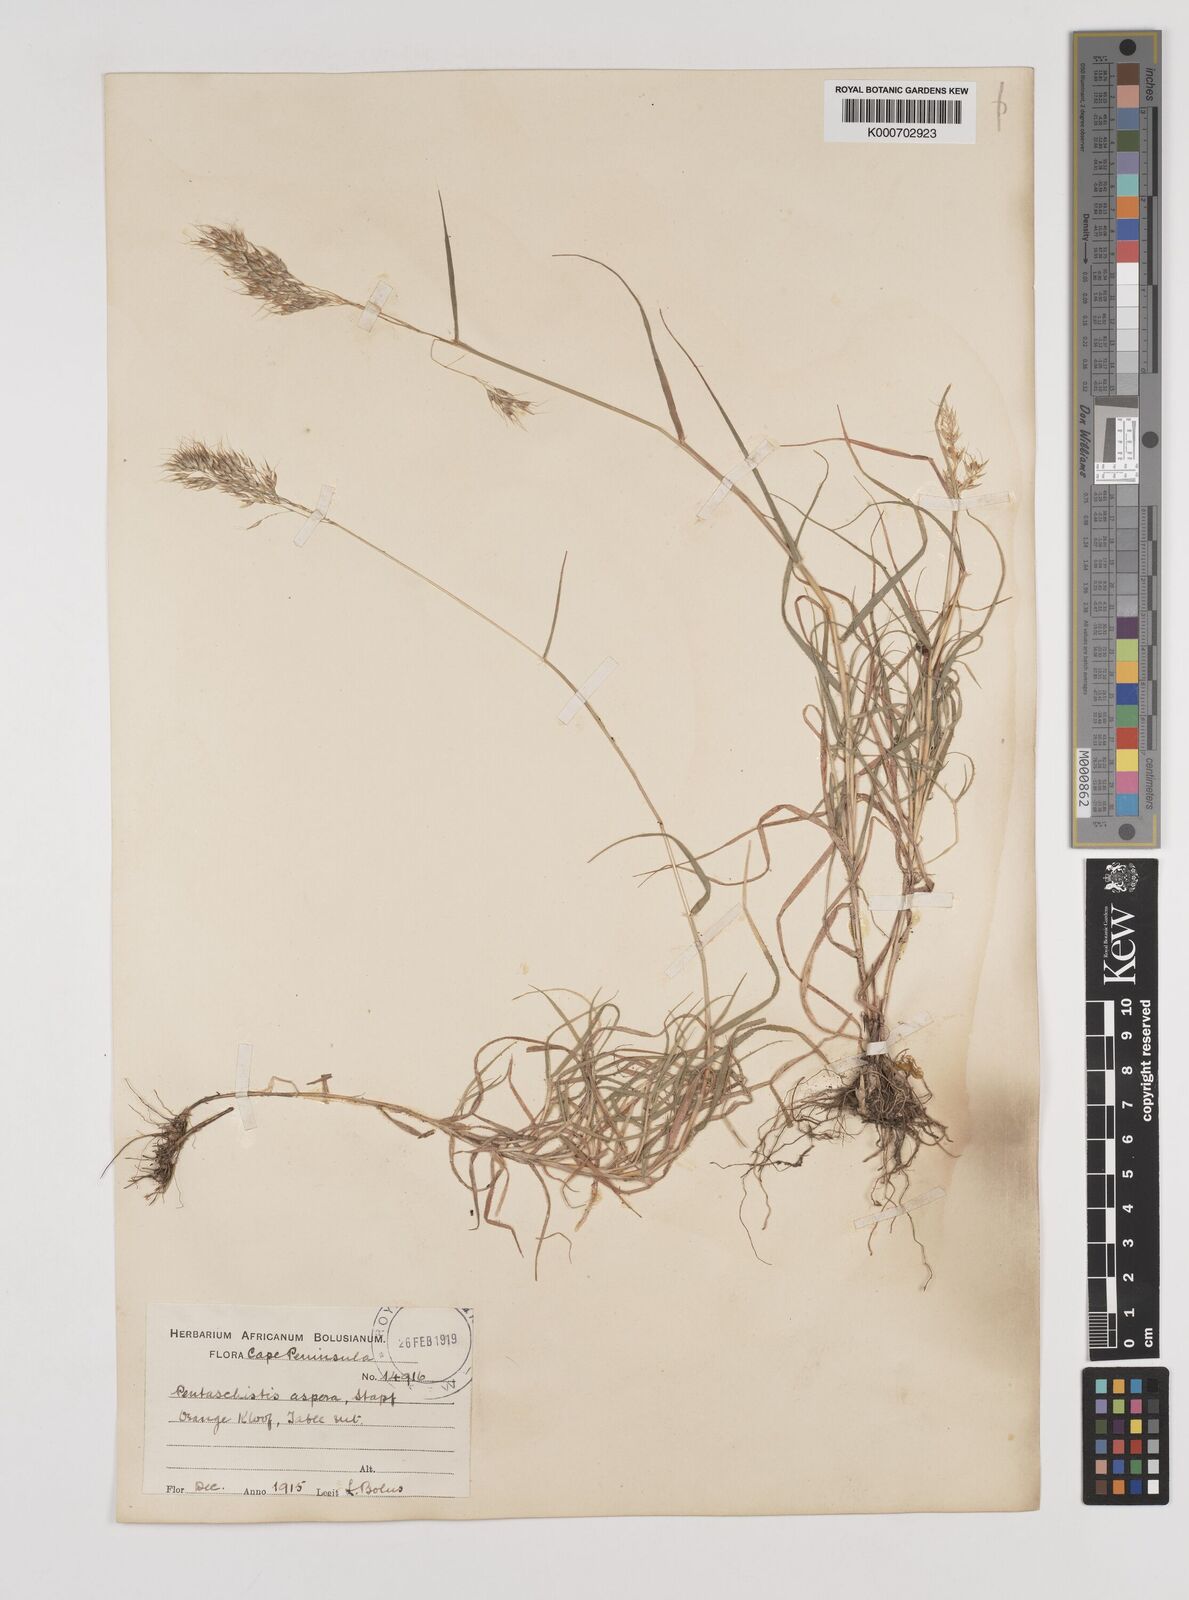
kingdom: Plantae
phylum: Tracheophyta
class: Liliopsida
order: Poales
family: Poaceae
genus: Pentameris
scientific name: Pentameris aspera
